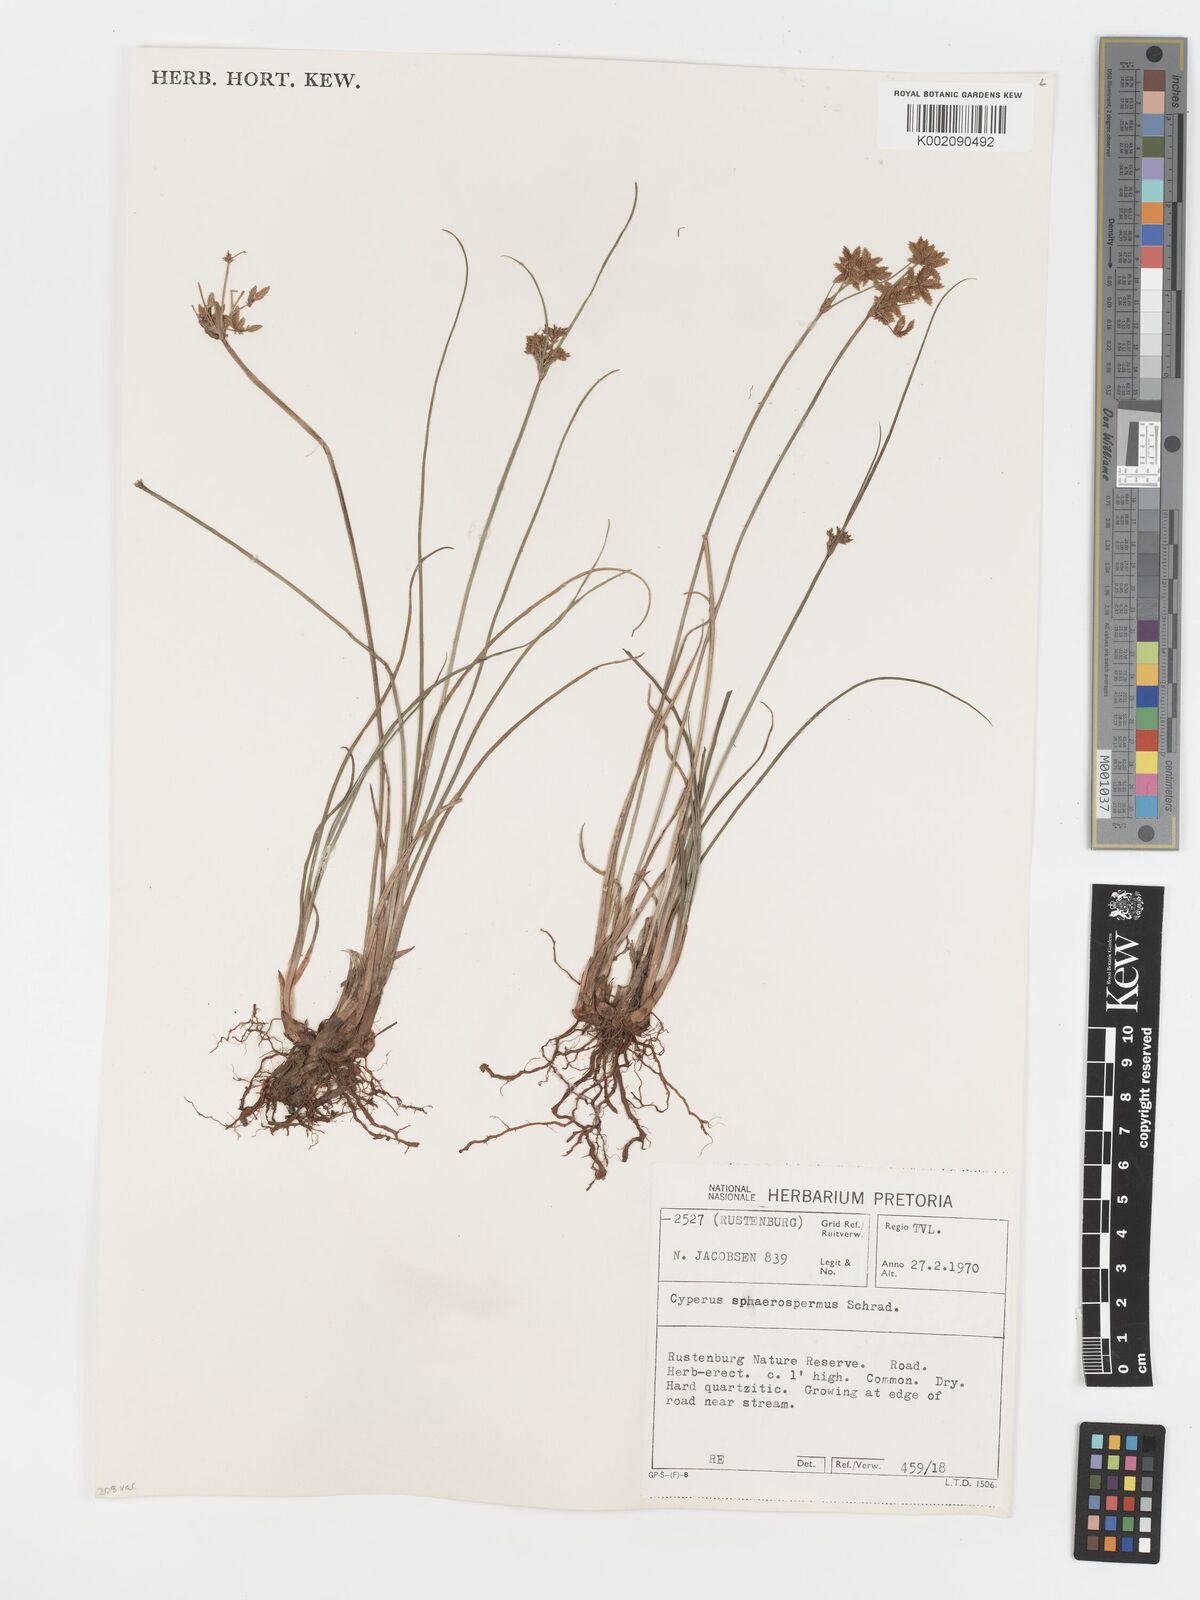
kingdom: Plantae
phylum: Tracheophyta
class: Liliopsida
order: Poales
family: Cyperaceae
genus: Cyperus
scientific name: Cyperus sphaerospermus
